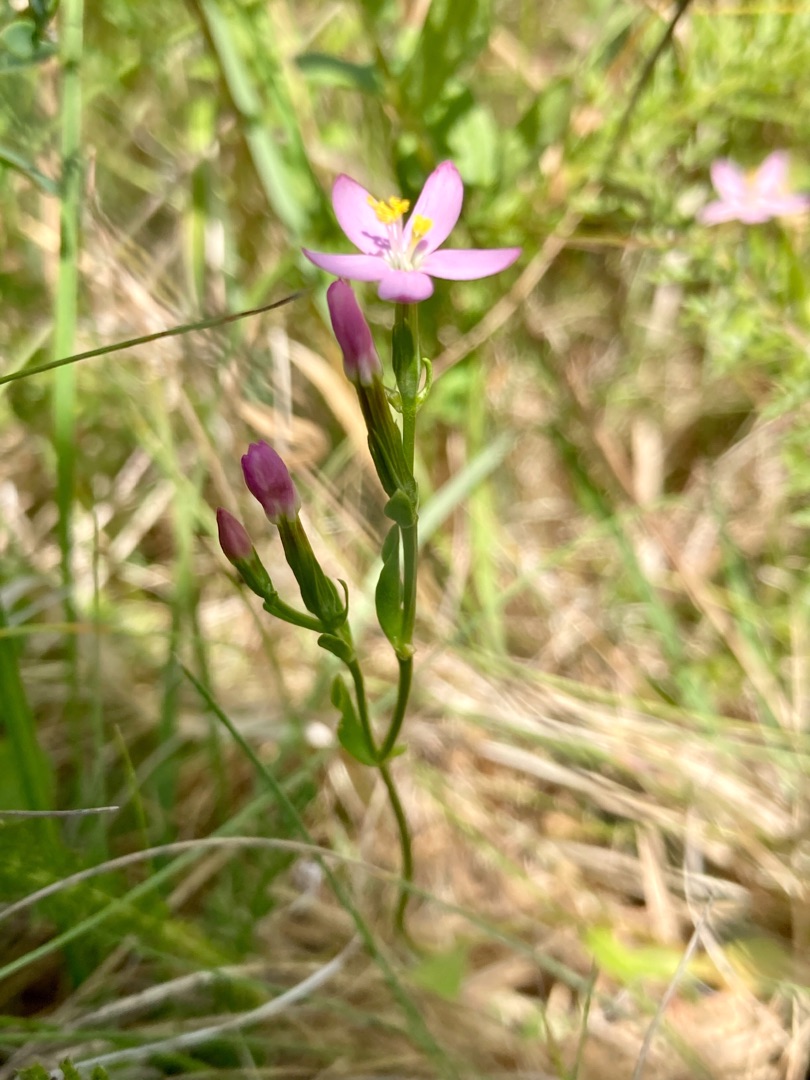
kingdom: Plantae
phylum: Tracheophyta
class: Magnoliopsida
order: Gentianales
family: Gentianaceae
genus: Centaurium
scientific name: Centaurium pulchellum
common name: Liden tusindgylden
